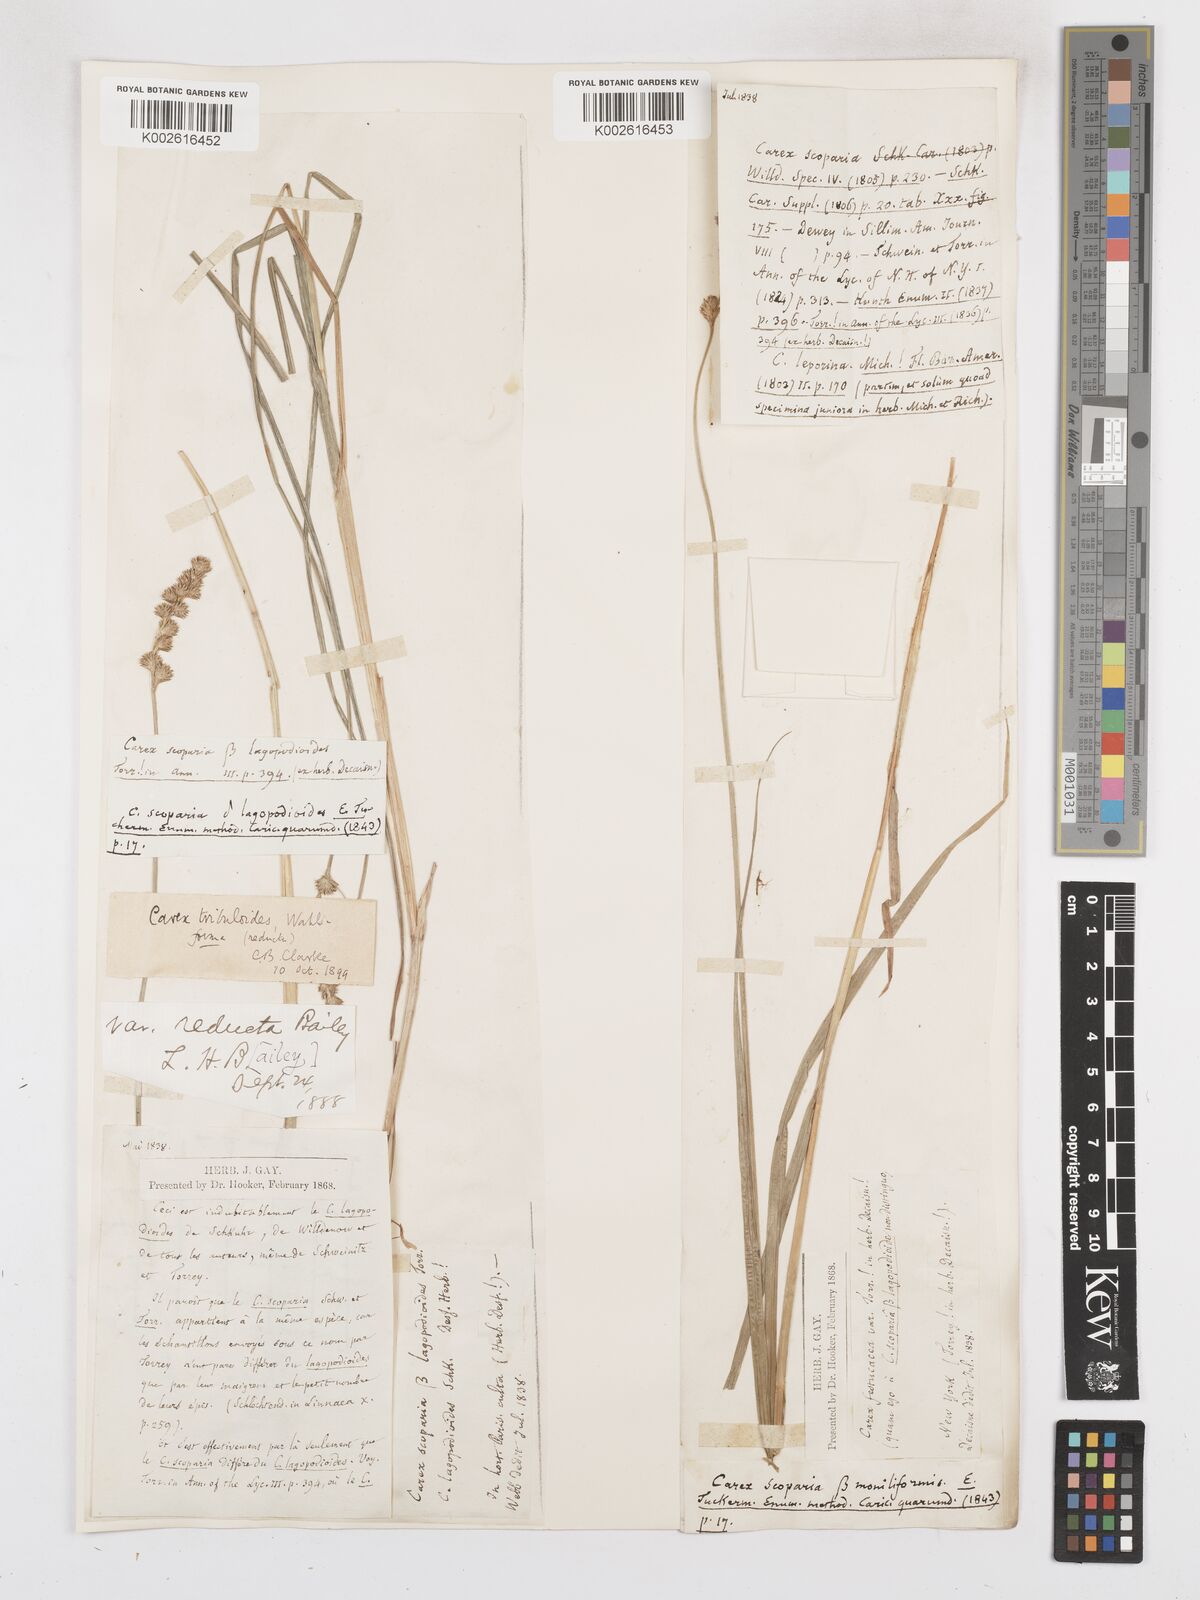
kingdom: Plantae
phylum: Tracheophyta
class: Liliopsida
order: Poales
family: Cyperaceae
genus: Carex
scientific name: Carex tribuloides
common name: Blunt broom sedge
